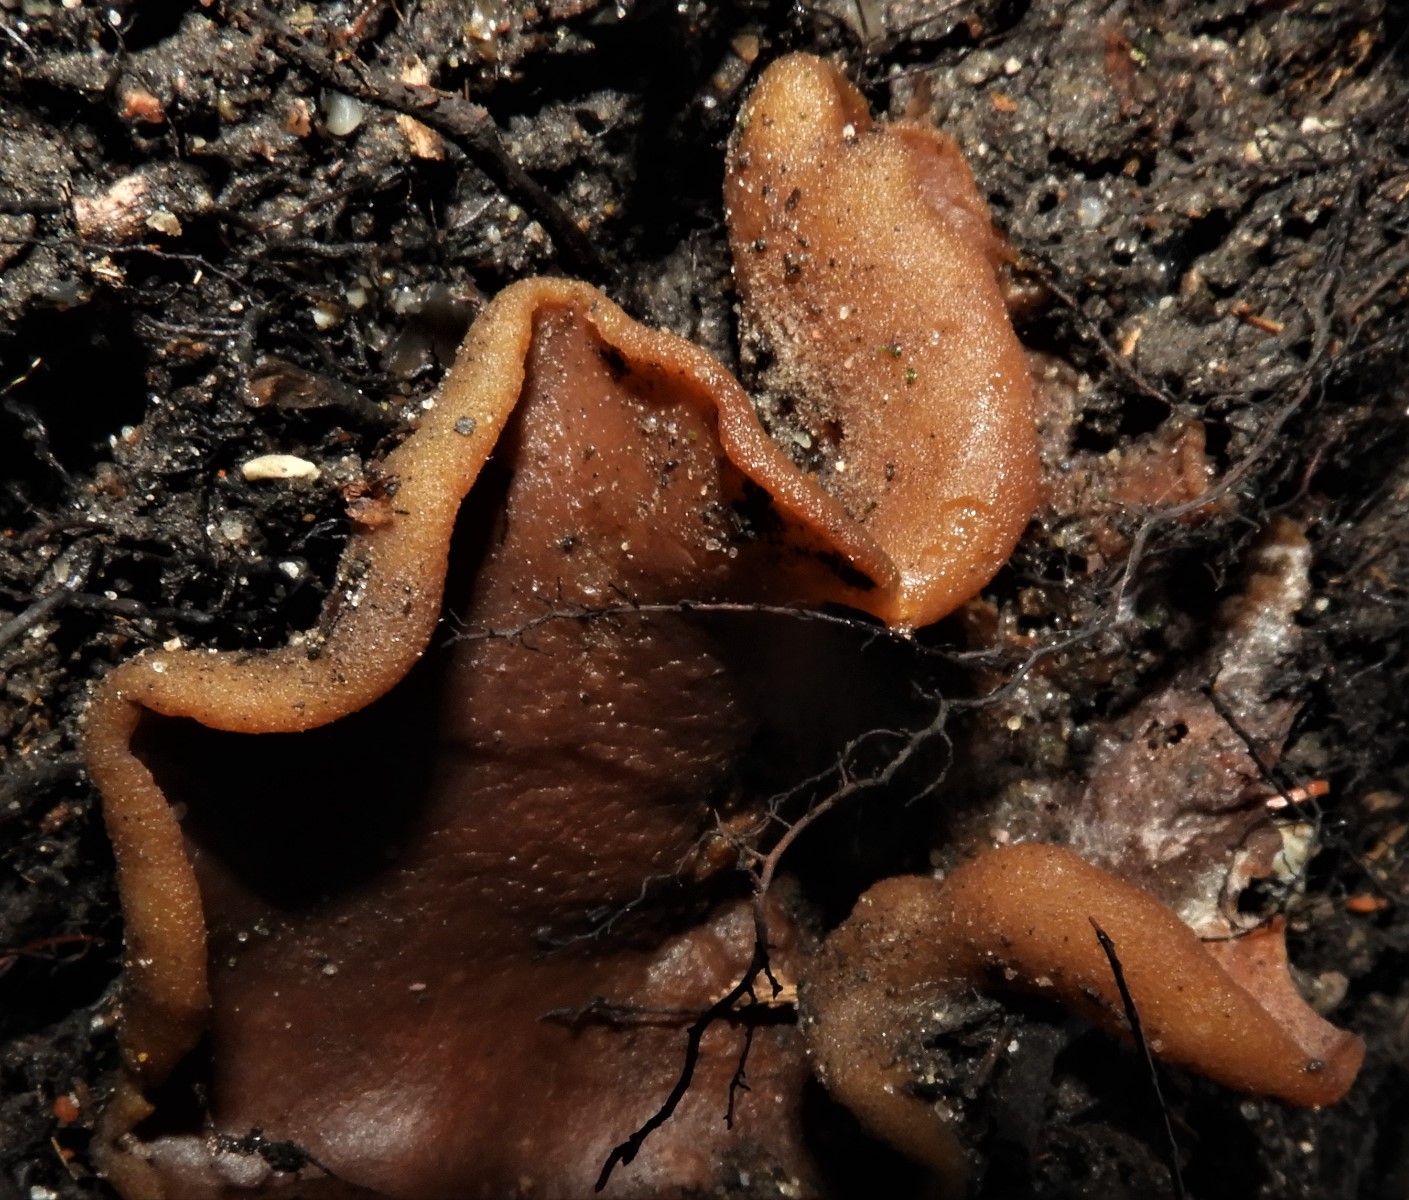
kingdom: Fungi
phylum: Ascomycota
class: Pezizomycetes
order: Pezizales
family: Pezizaceae
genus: Peziza
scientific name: Peziza
